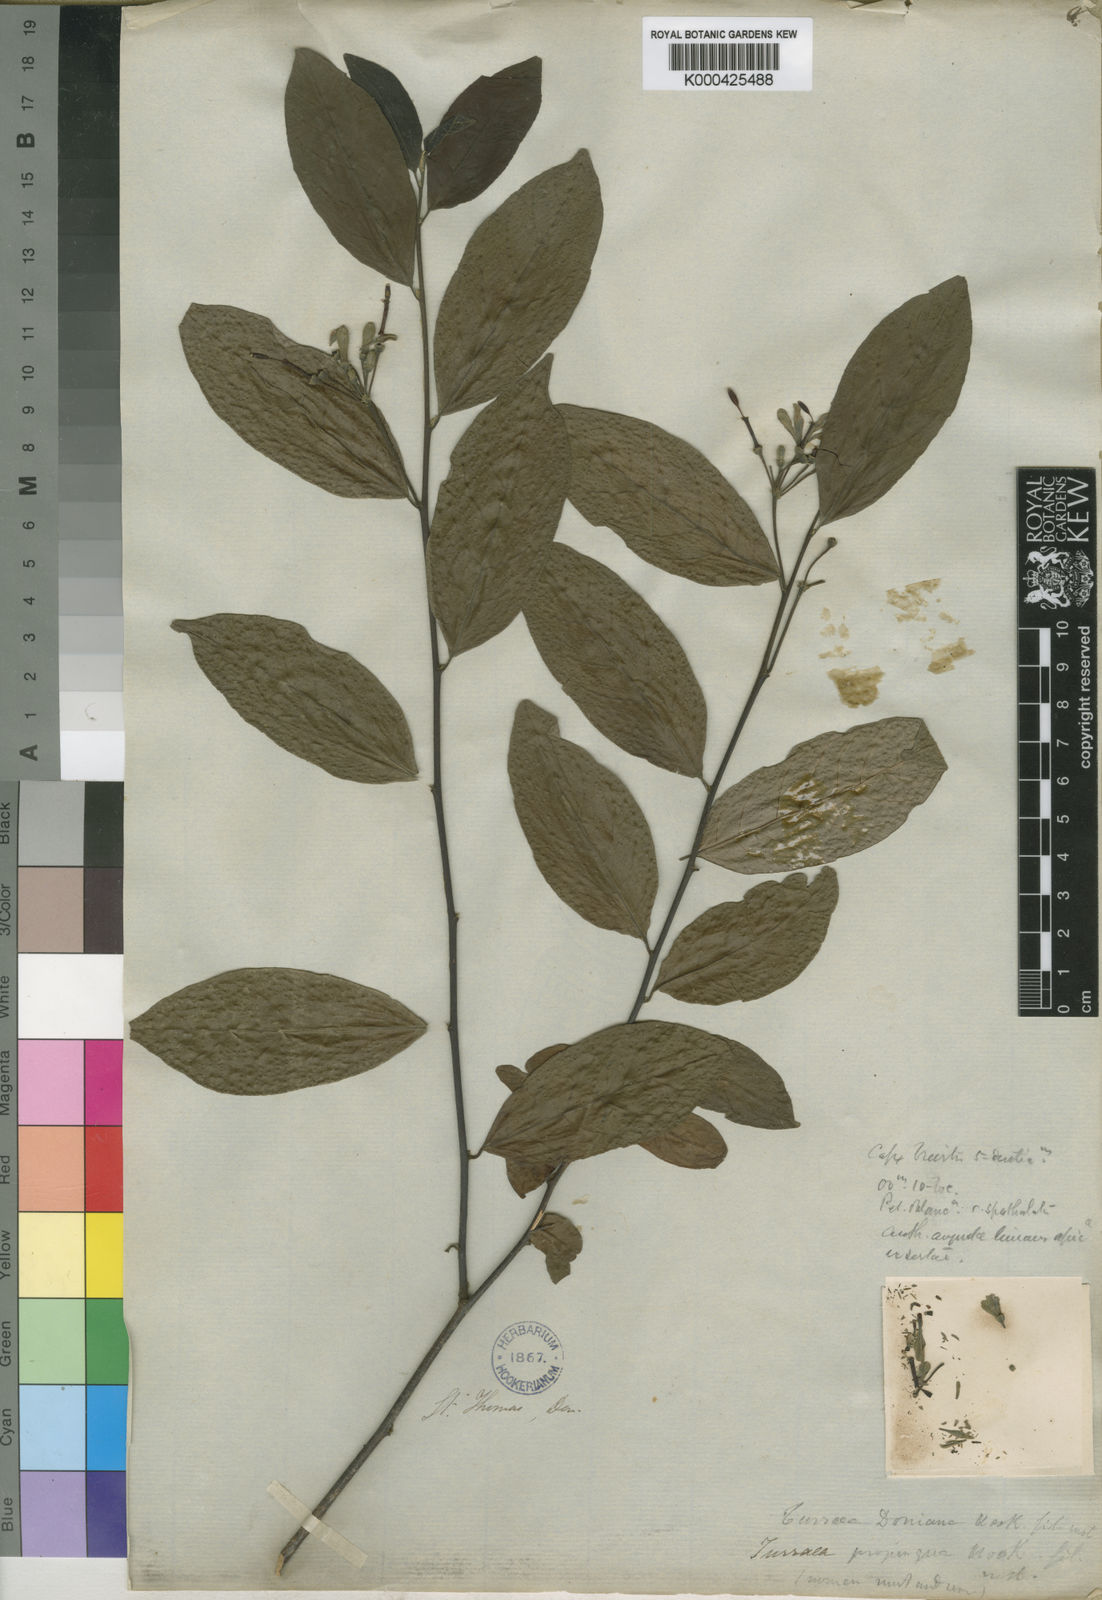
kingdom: Plantae
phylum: Tracheophyta
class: Magnoliopsida
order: Sapindales
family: Meliaceae
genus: Turraea
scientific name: Turraea
